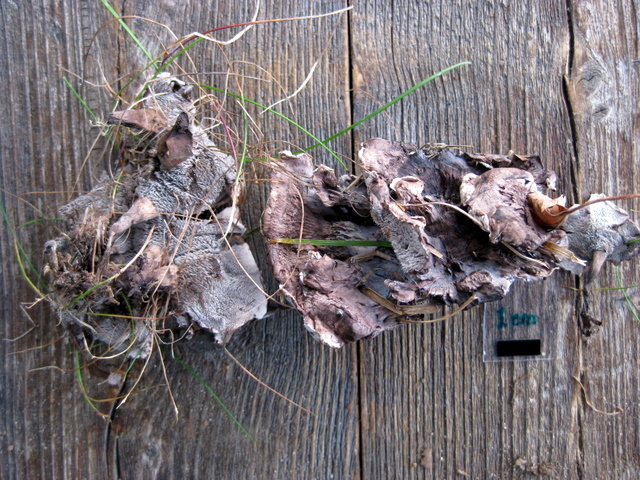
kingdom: Fungi
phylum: Basidiomycota
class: Agaricomycetes
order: Thelephorales
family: Thelephoraceae
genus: Phellodon
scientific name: Phellodon confluens
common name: pjaltet duftpigsvamp
